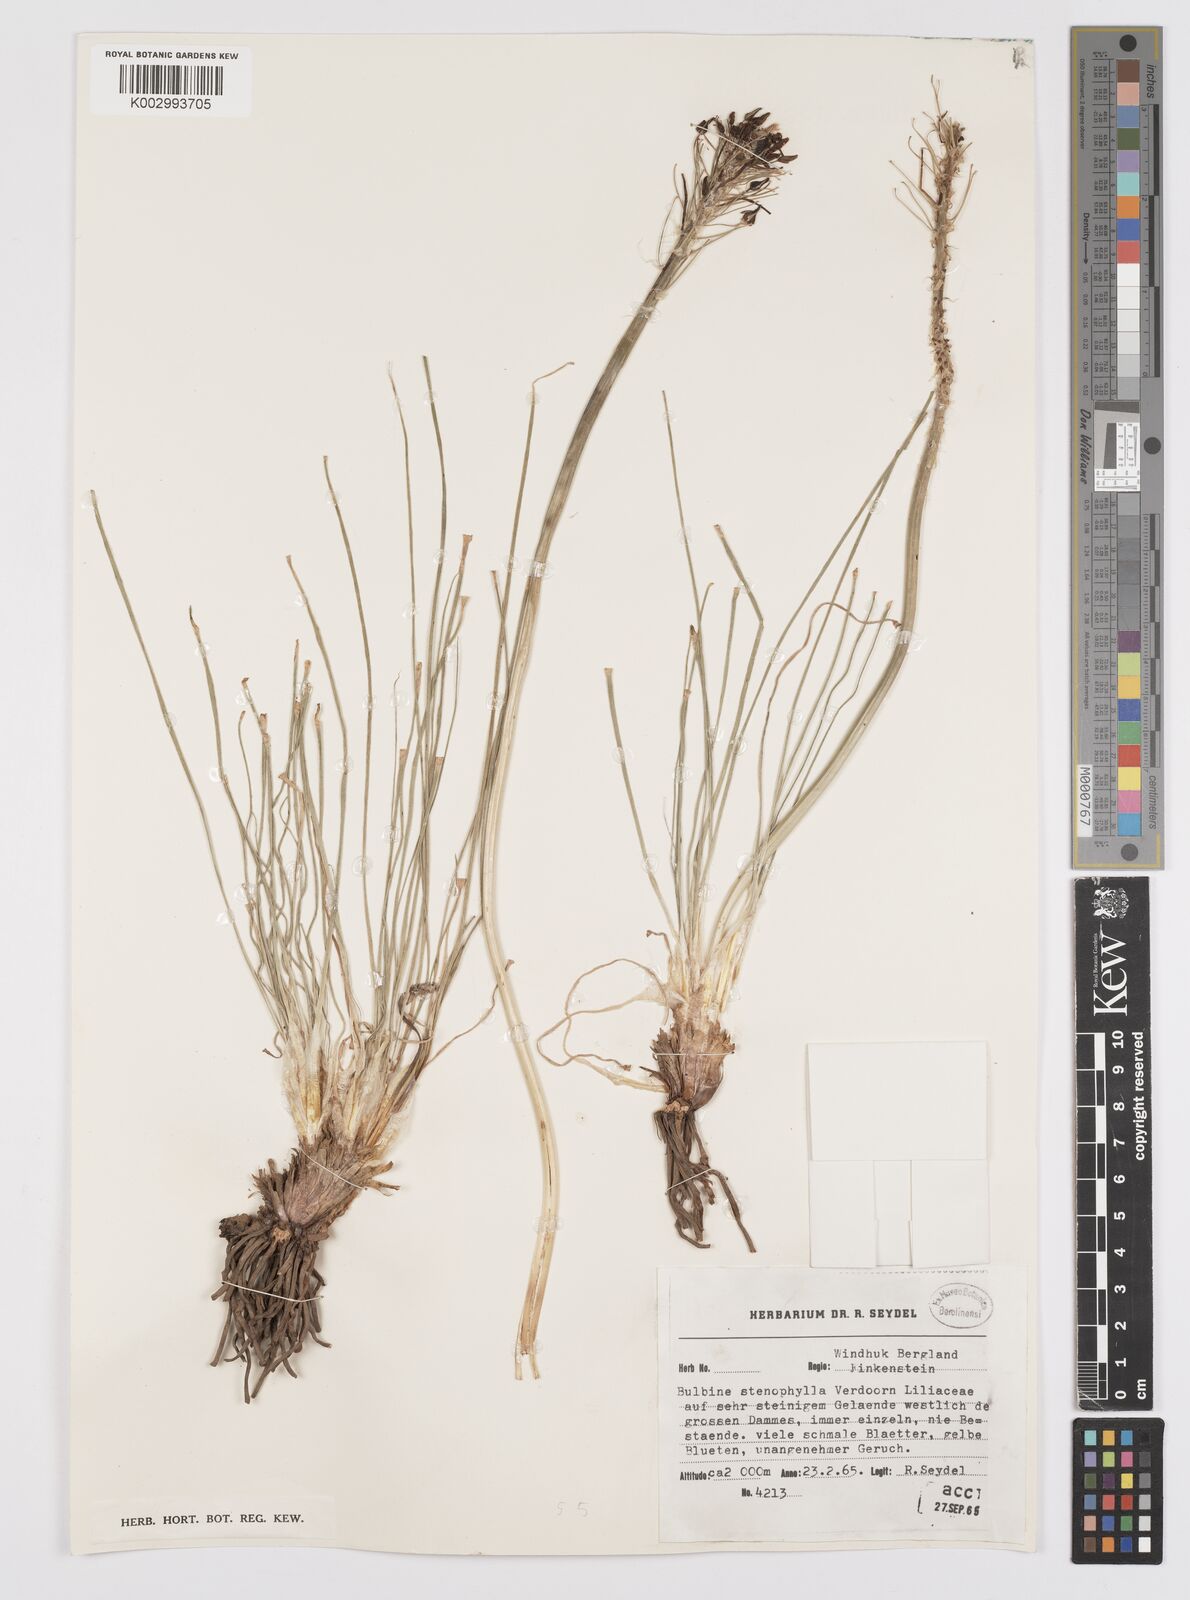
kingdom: Plantae
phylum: Tracheophyta
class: Liliopsida
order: Asparagales
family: Asphodelaceae
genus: Bulbine
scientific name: Bulbine capitata
